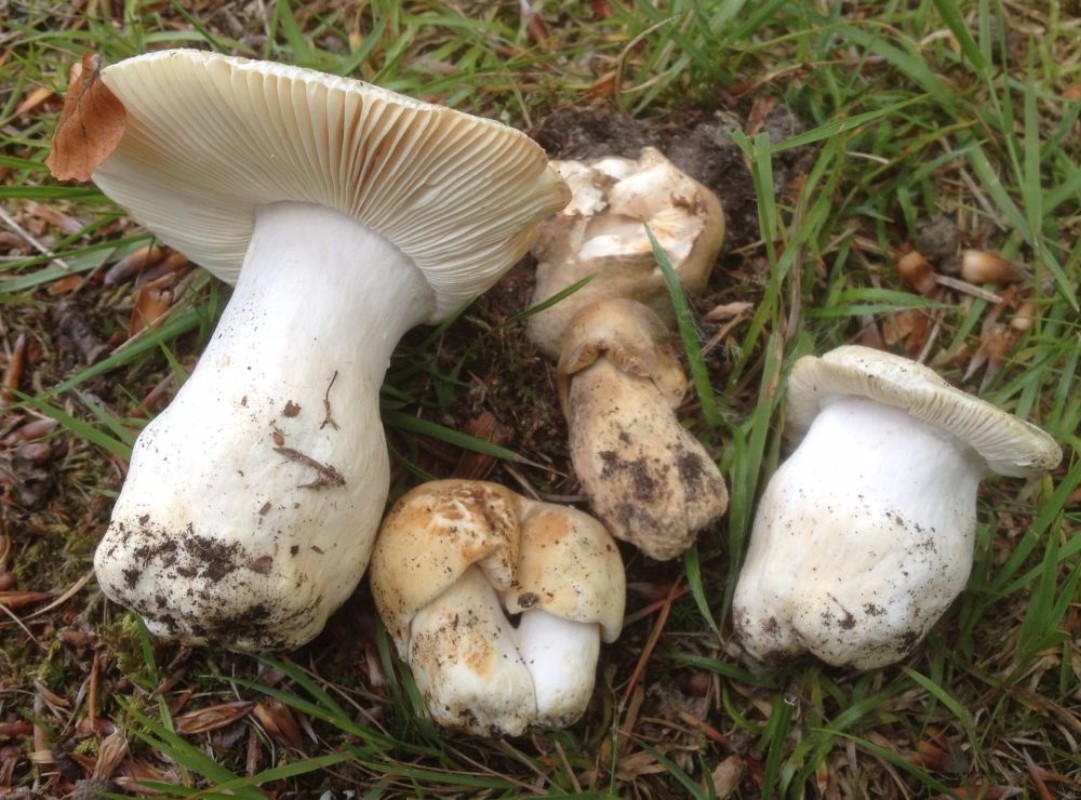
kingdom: Fungi
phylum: Basidiomycota
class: Agaricomycetes
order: Russulales
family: Russulaceae
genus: Russula
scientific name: Russula virescens
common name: spanskgrøn skørhat
